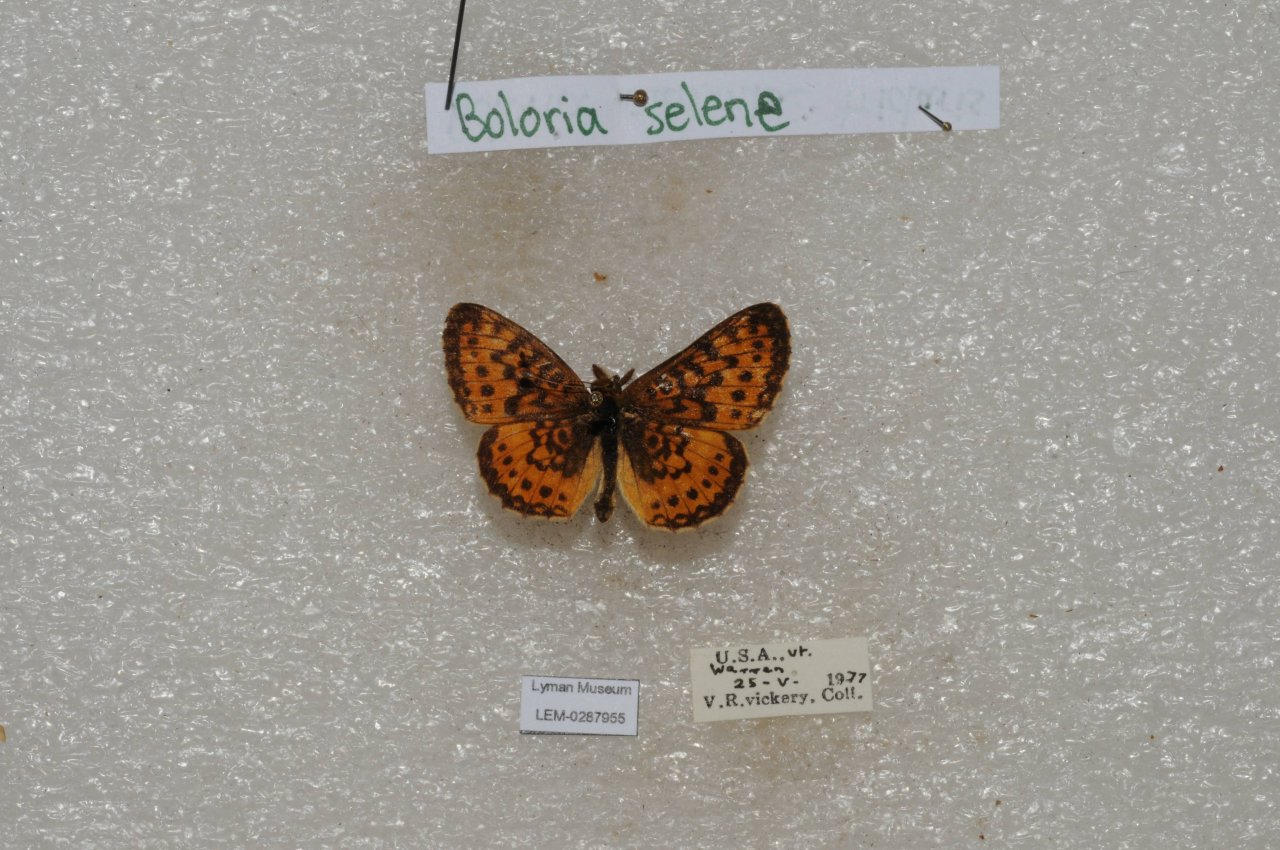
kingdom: Animalia
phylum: Arthropoda
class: Insecta
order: Lepidoptera
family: Nymphalidae
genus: Boloria
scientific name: Boloria selene
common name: Silver-bordered Fritillary
